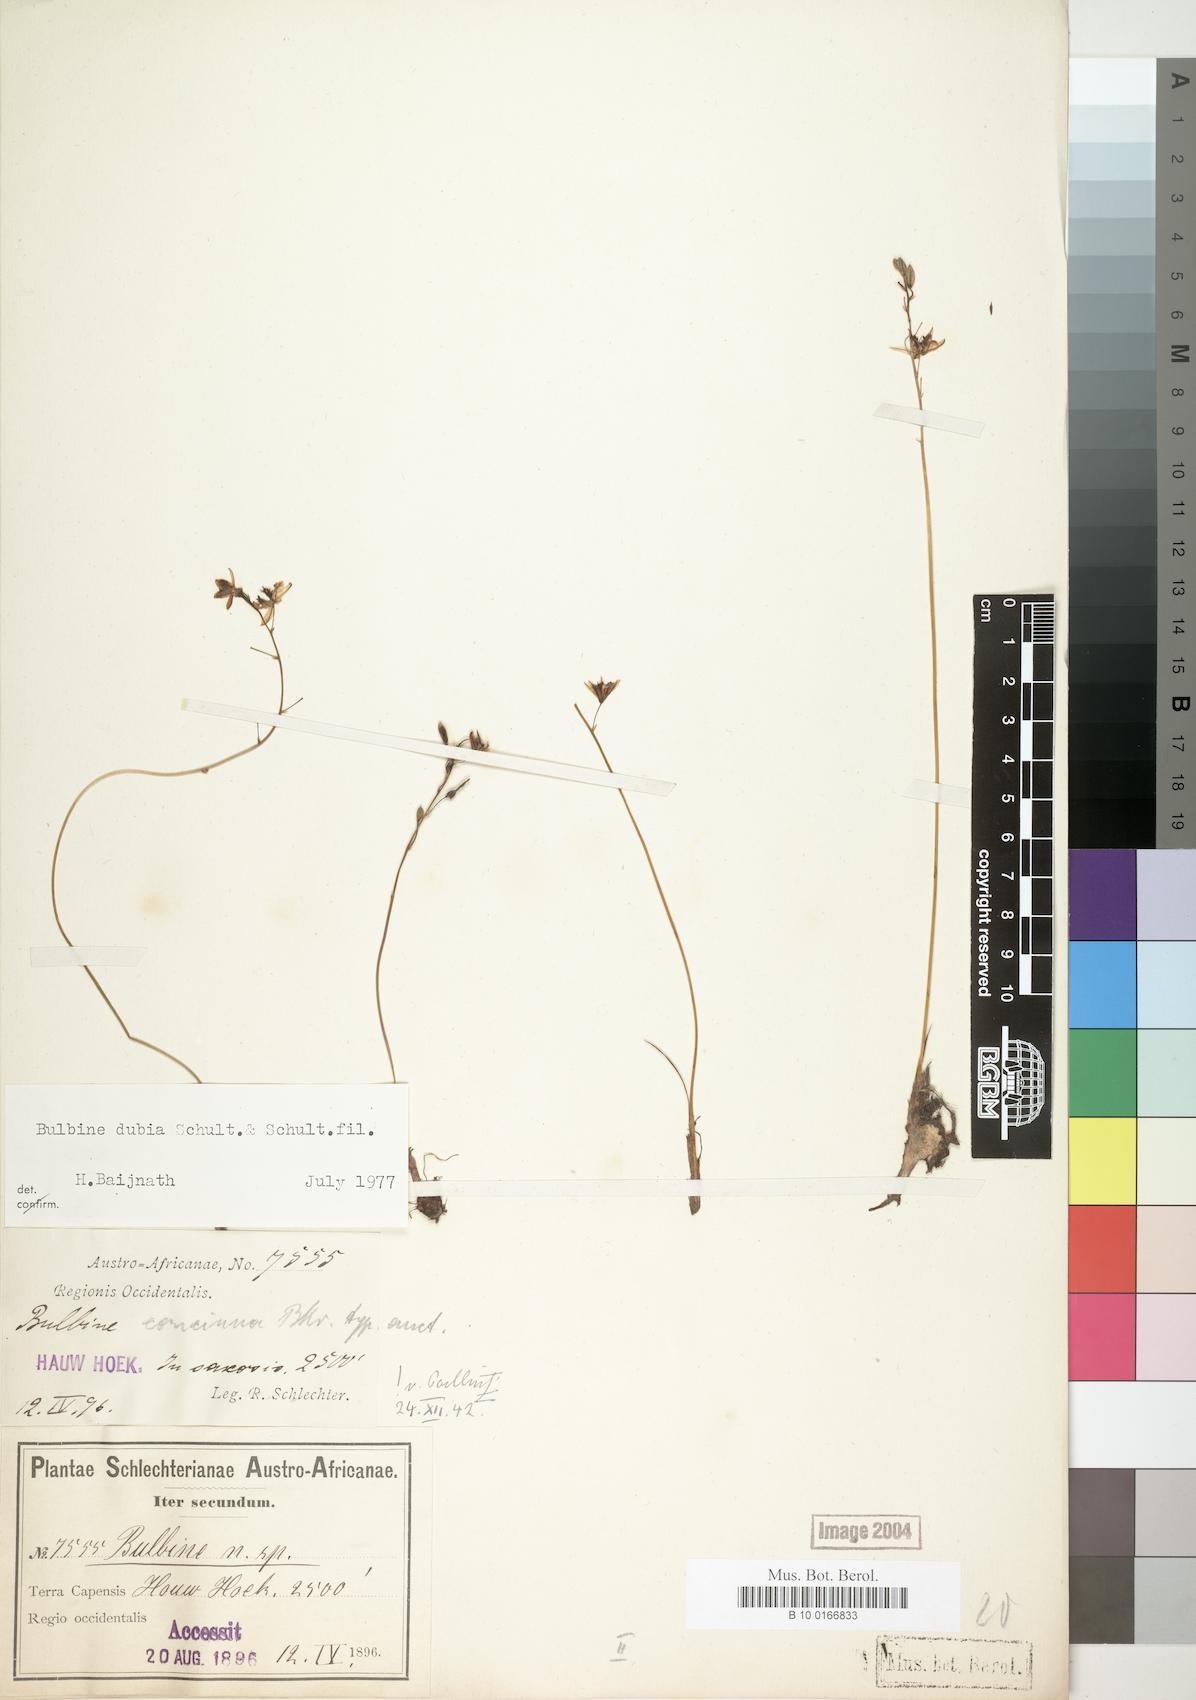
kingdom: Plantae
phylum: Tracheophyta
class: Liliopsida
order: Asparagales
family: Asphodelaceae
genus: Bulbine
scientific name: Bulbine favosa
